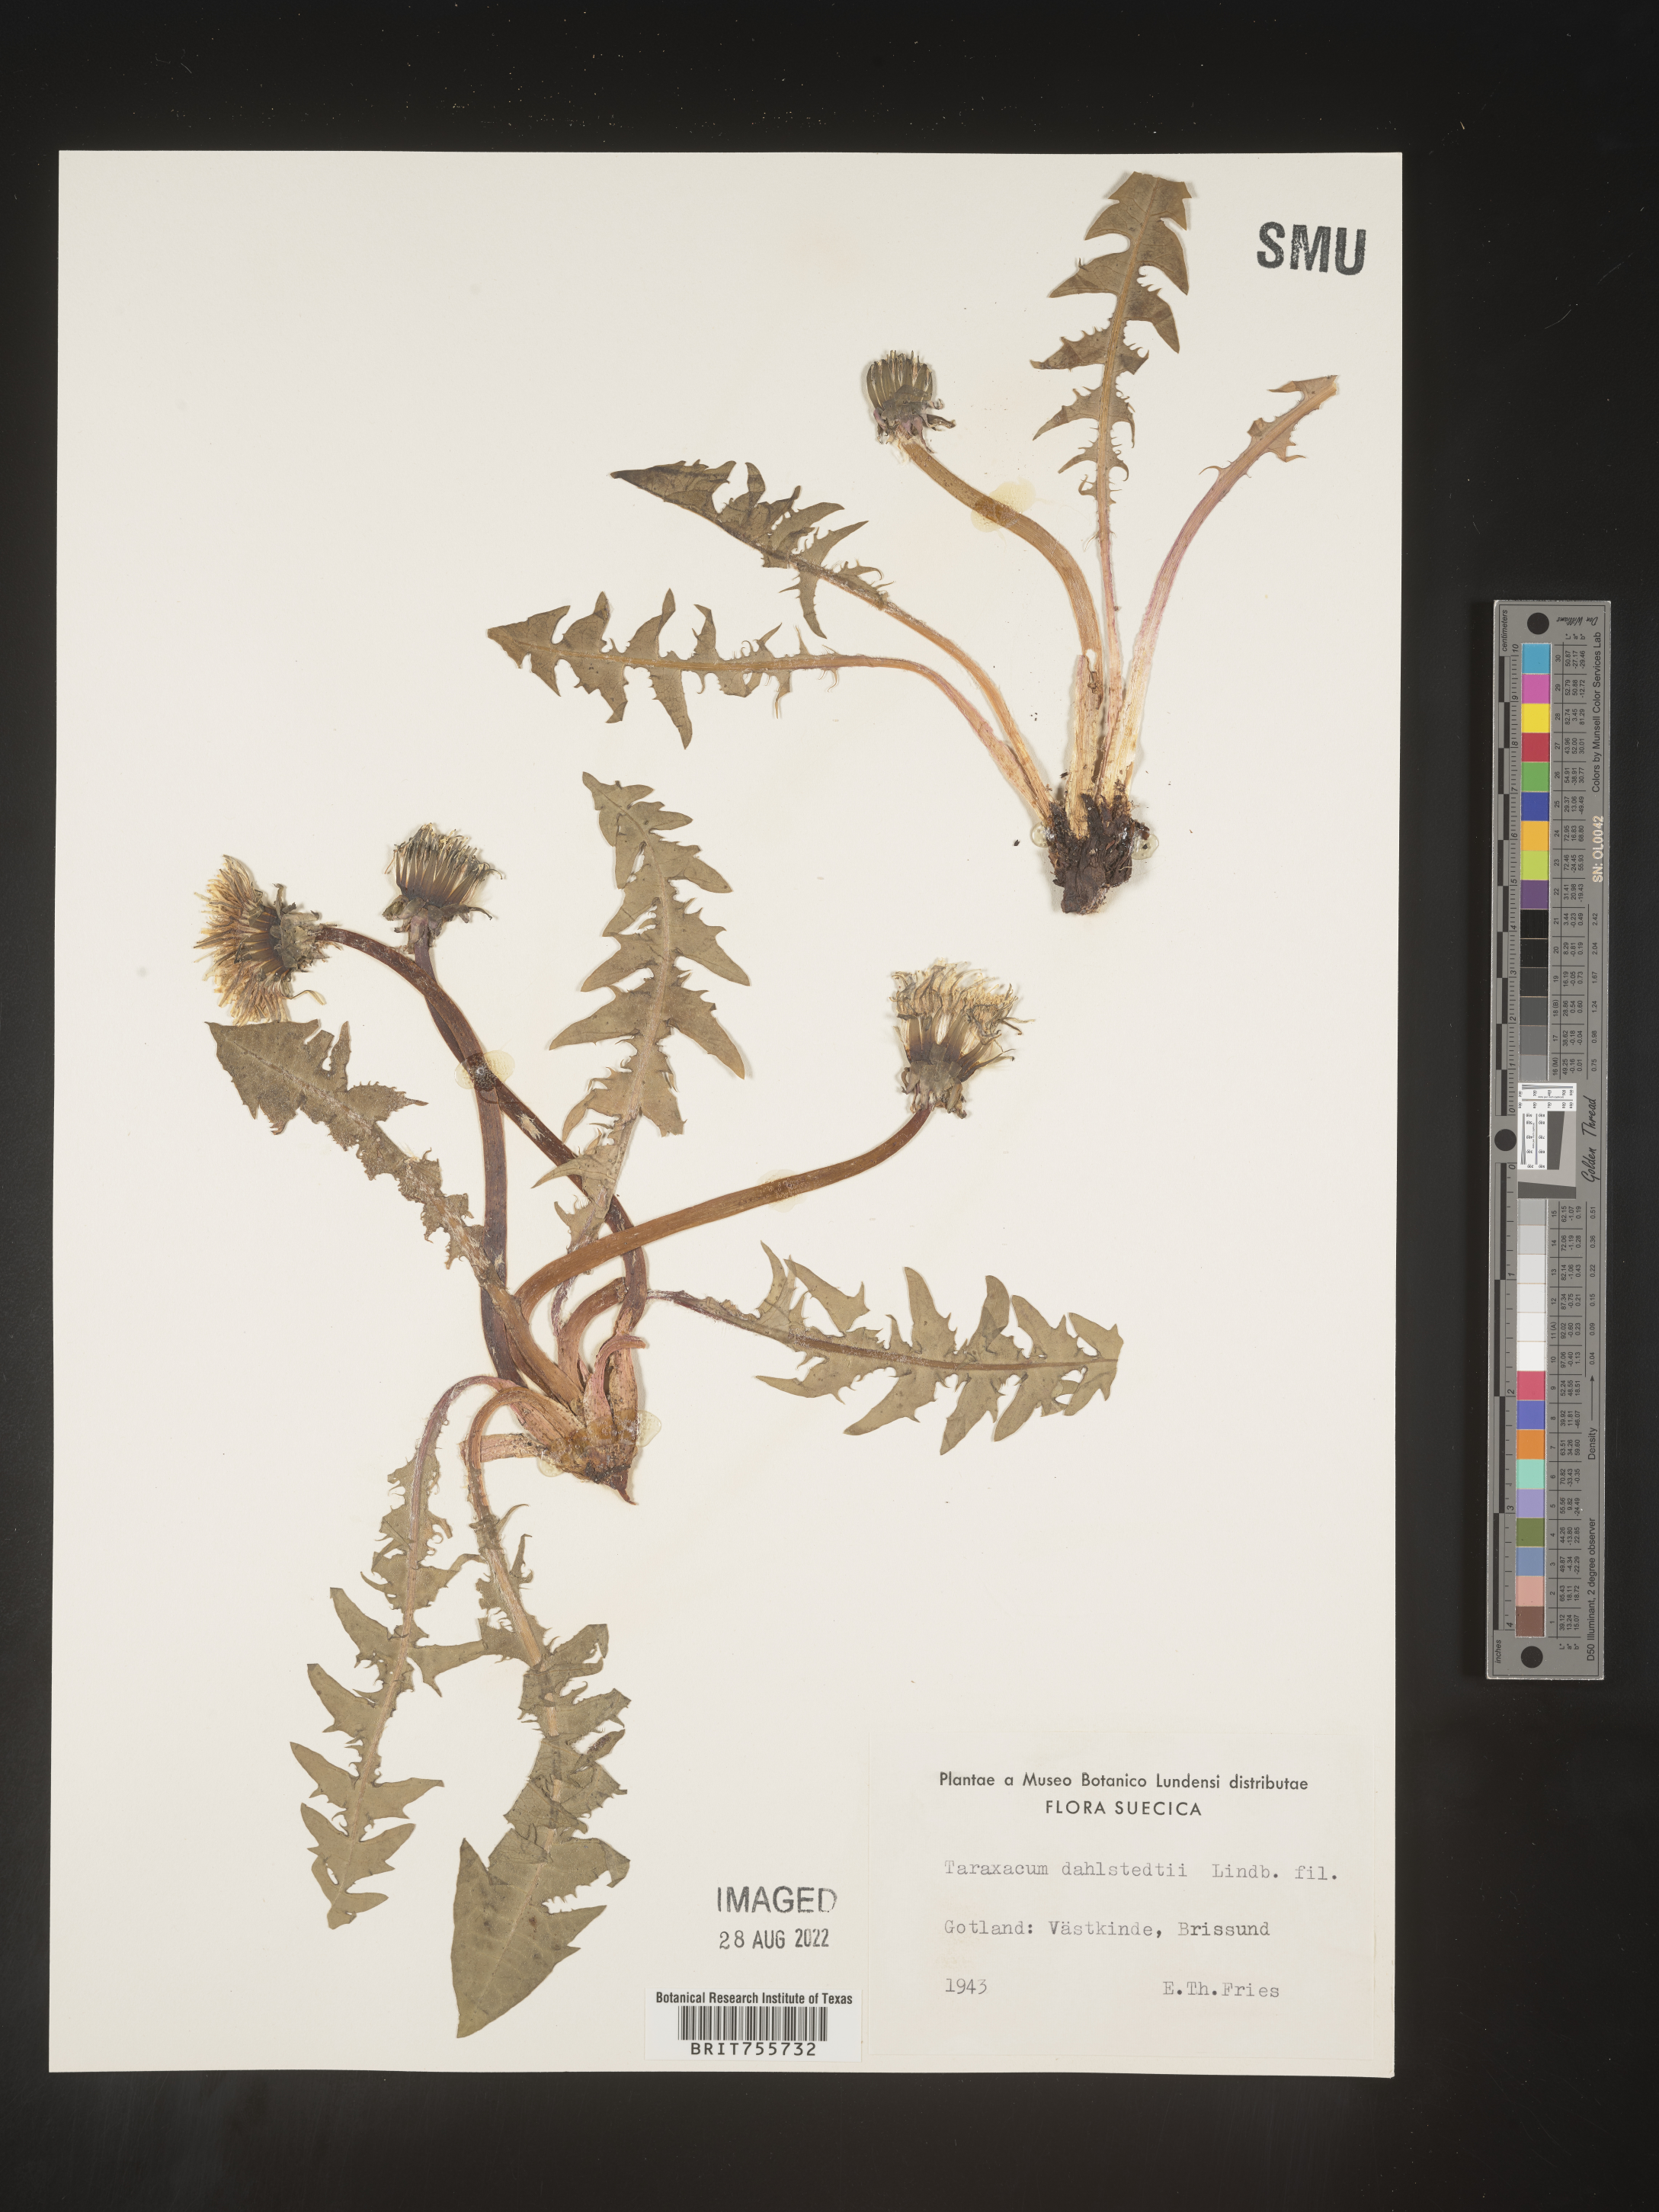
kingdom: Plantae
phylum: Tracheophyta
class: Magnoliopsida
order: Asterales
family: Asteraceae
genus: Taraxacum
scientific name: Taraxacum
